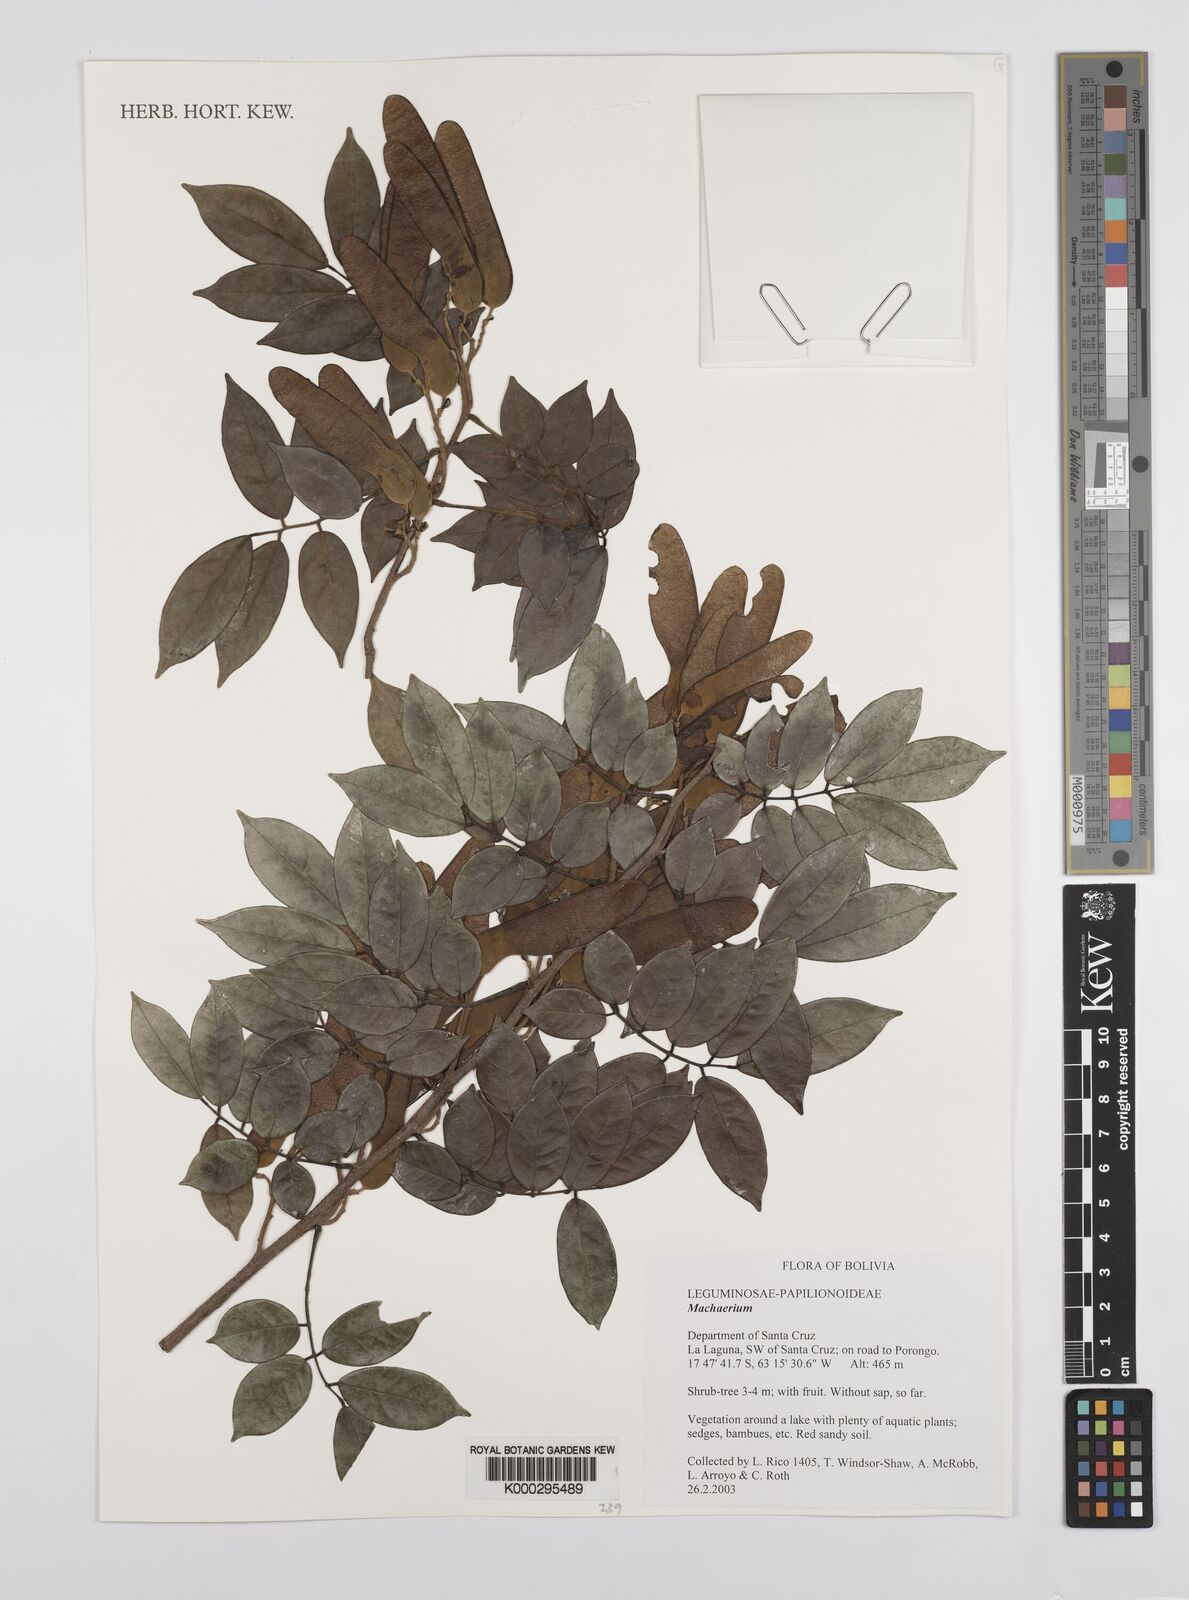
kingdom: Plantae
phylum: Tracheophyta
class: Magnoliopsida
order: Fabales
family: Fabaceae
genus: Machaerium
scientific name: Machaerium latifolium
